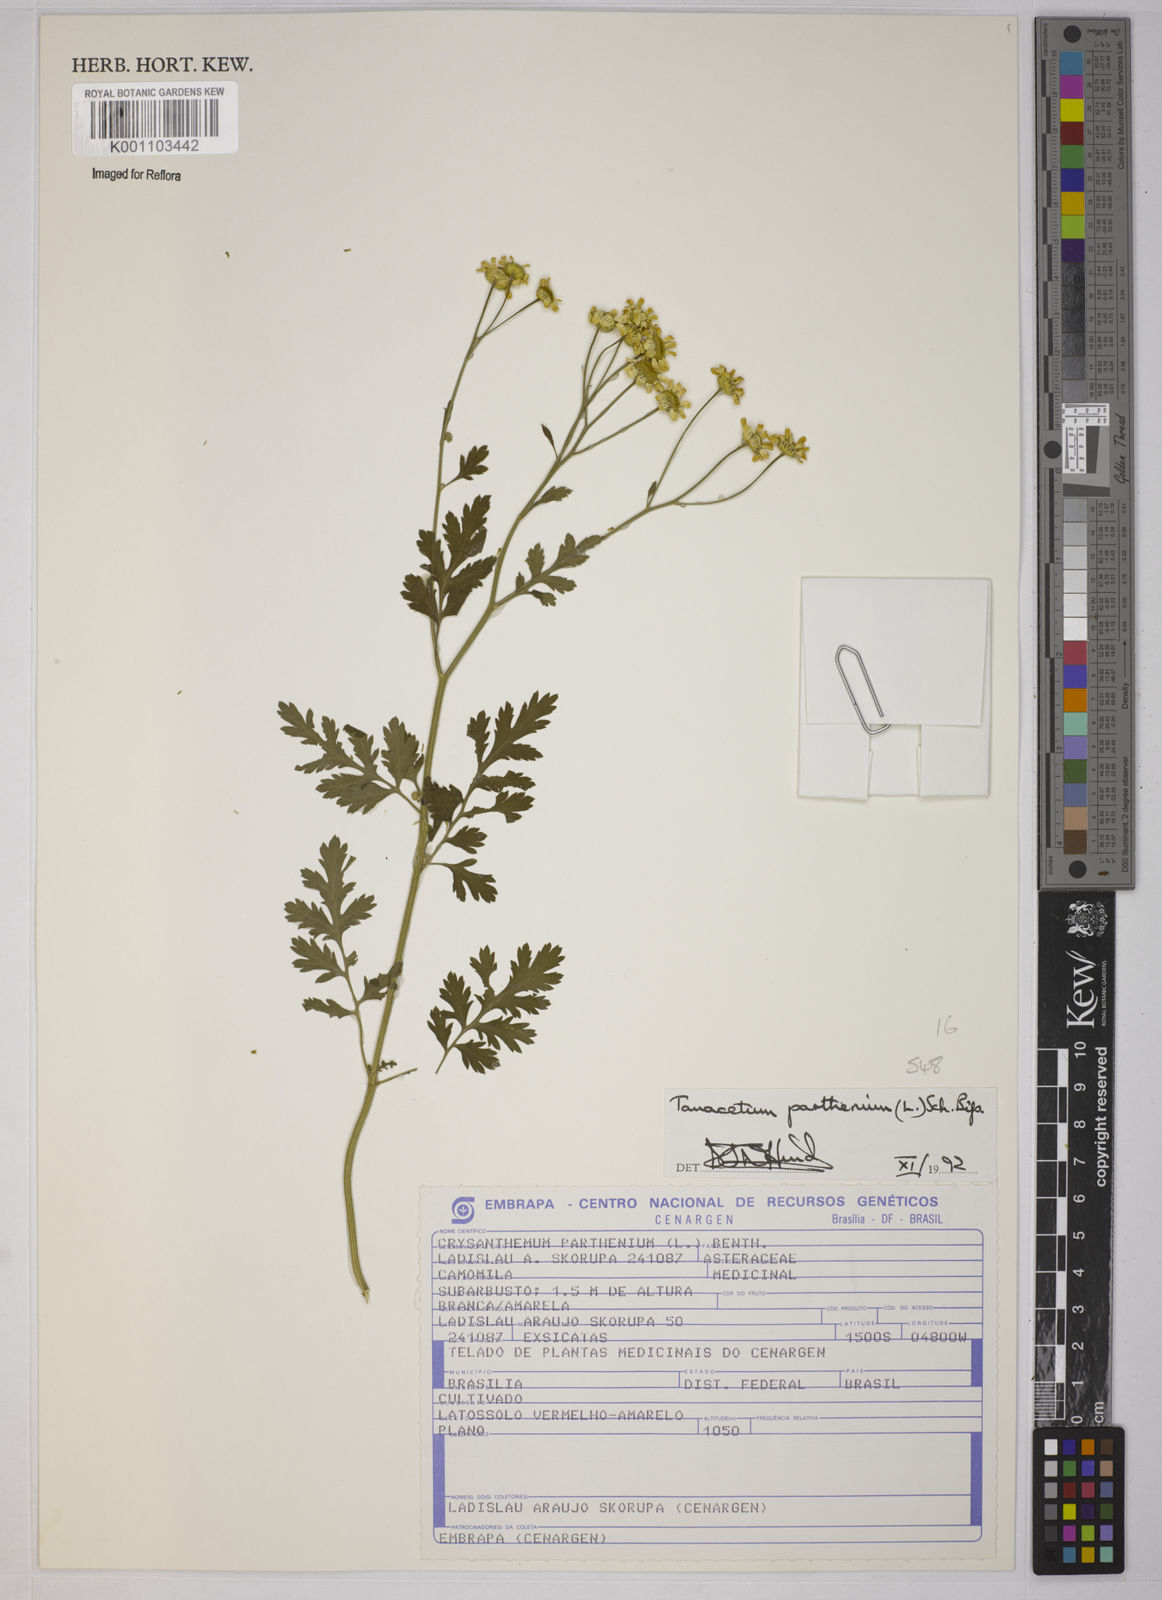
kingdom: Plantae
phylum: Tracheophyta
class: Magnoliopsida
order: Asterales
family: Asteraceae
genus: Tanacetum
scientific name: Tanacetum parthenium
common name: Feverfew
